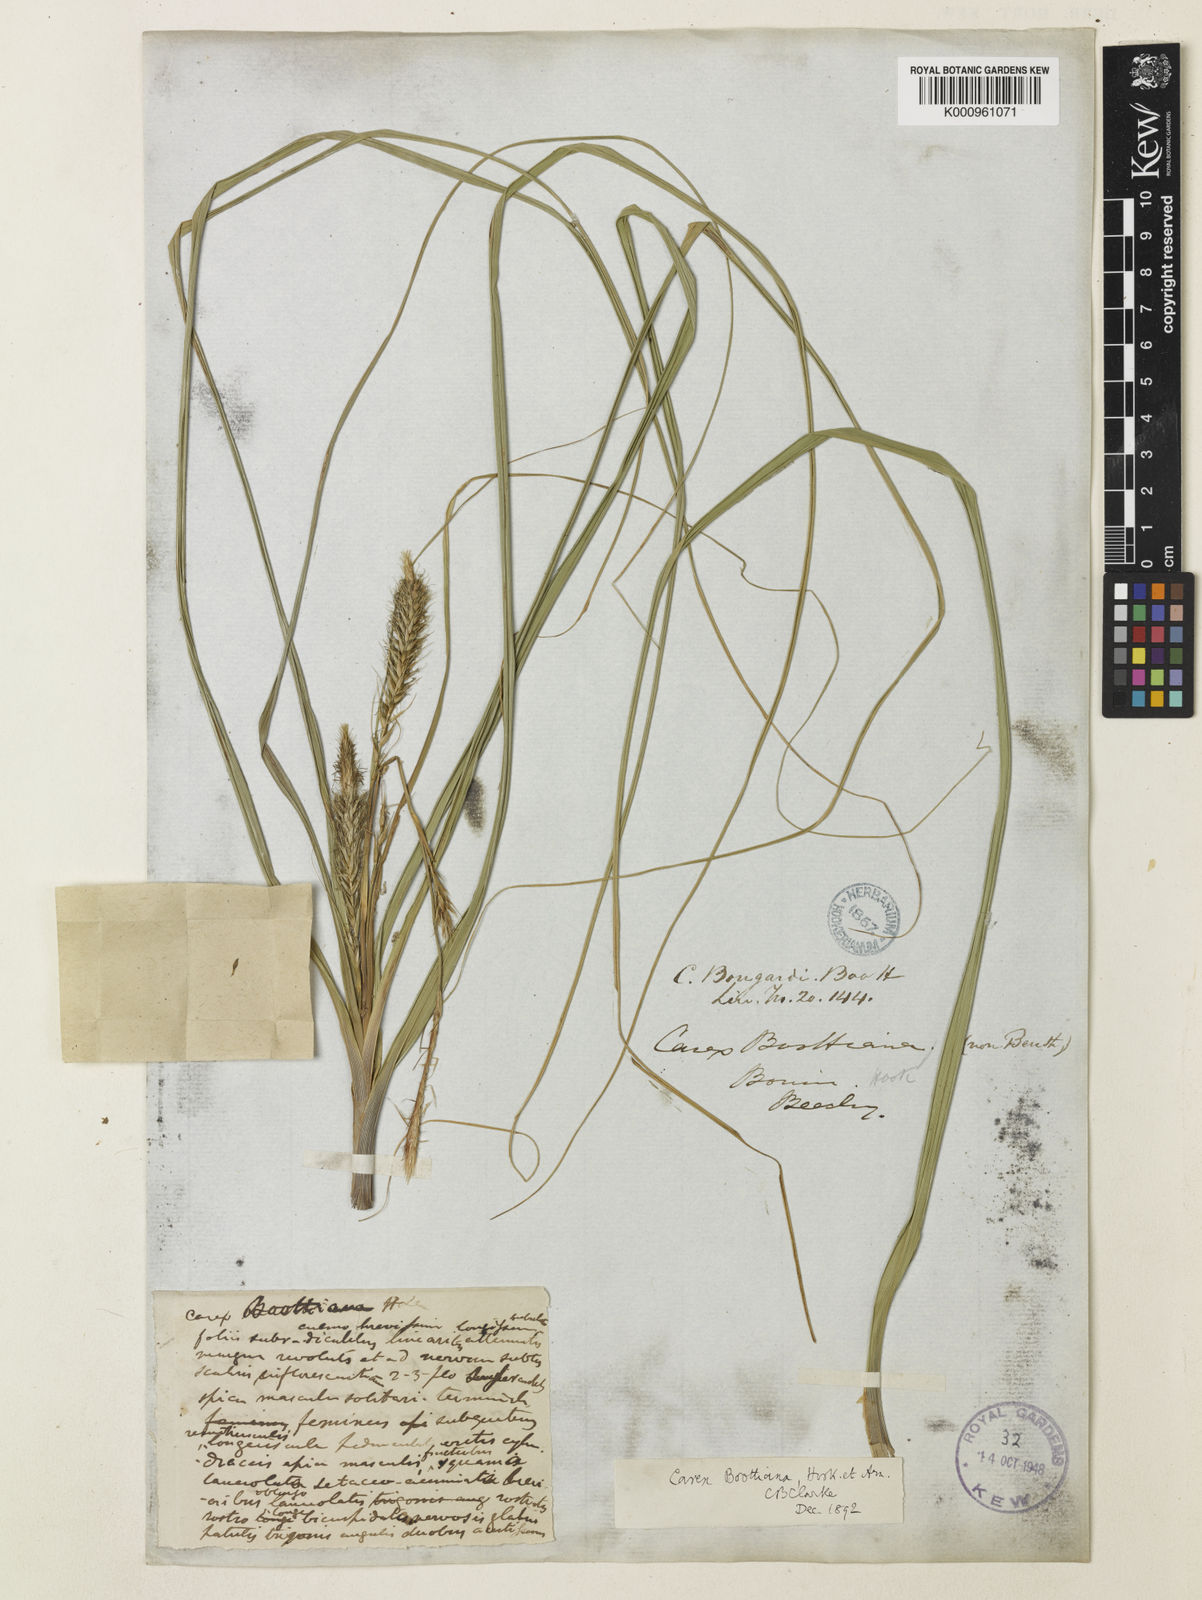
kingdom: Plantae
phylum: Tracheophyta
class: Liliopsida
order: Poales
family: Cyperaceae
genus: Carex
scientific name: Carex wahuensis
